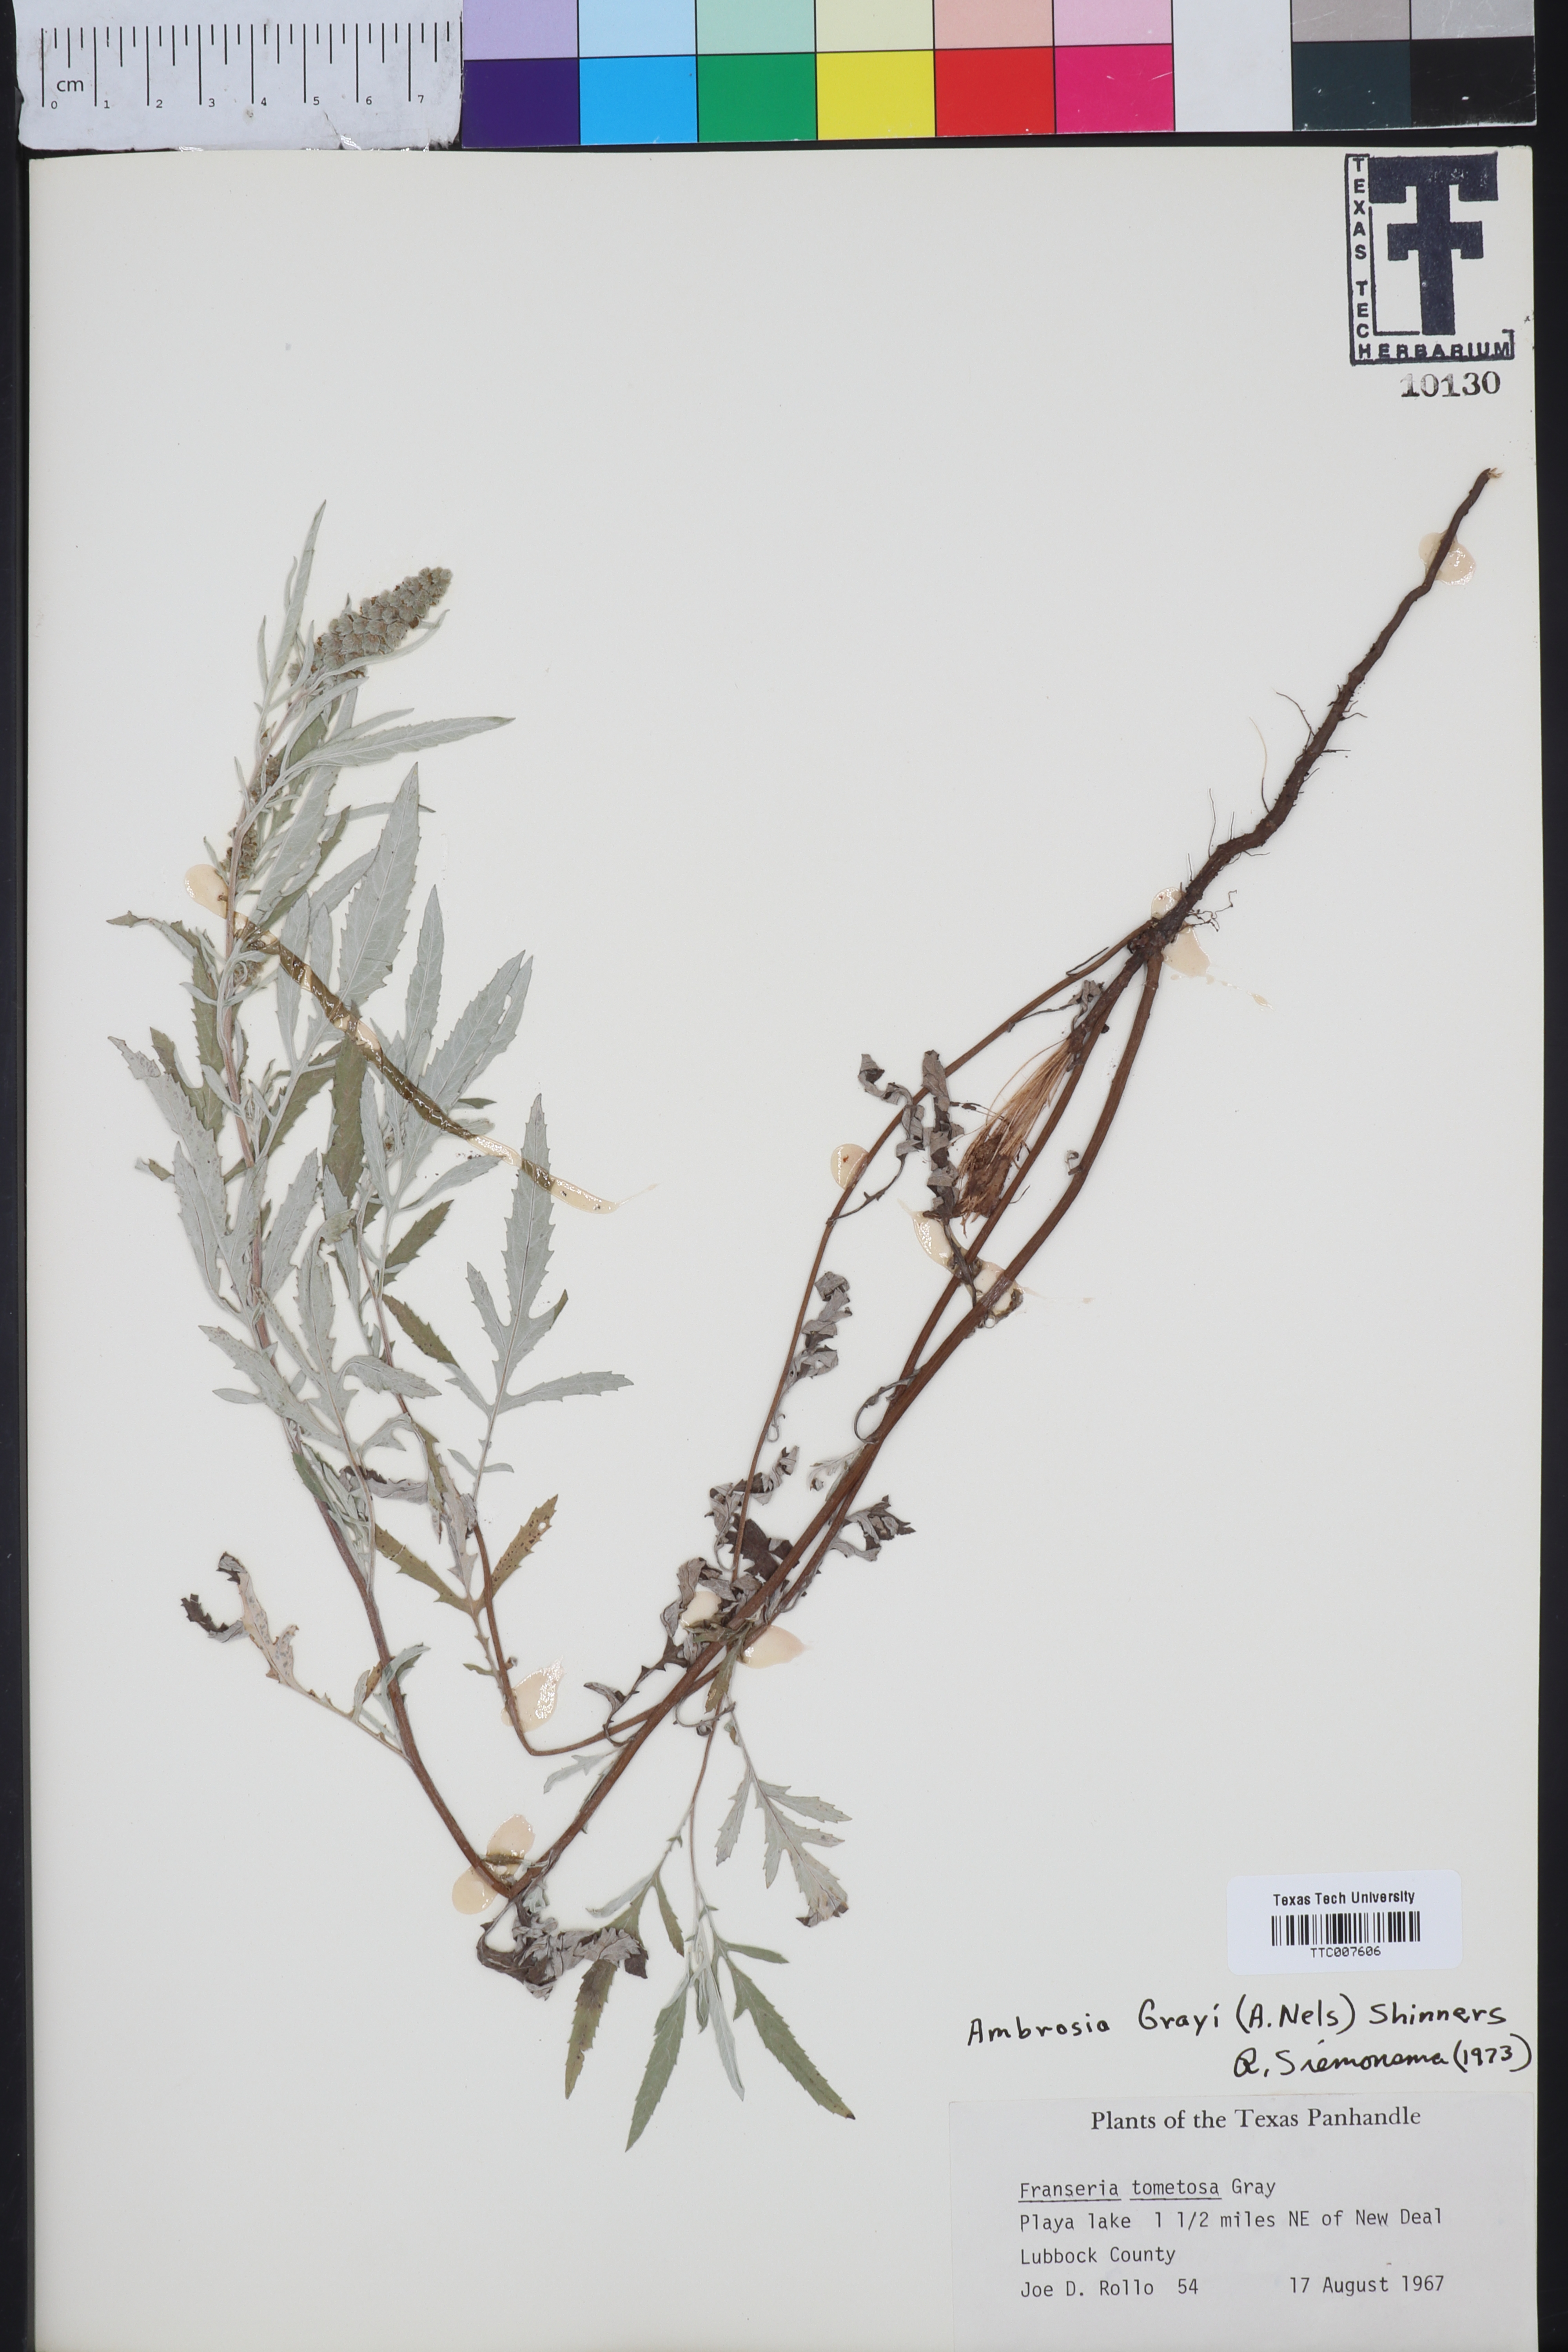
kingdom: Plantae
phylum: Tracheophyta
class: Magnoliopsida
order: Asterales
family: Asteraceae
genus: Ambrosia
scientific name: Ambrosia grayi
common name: Bur ragweed
